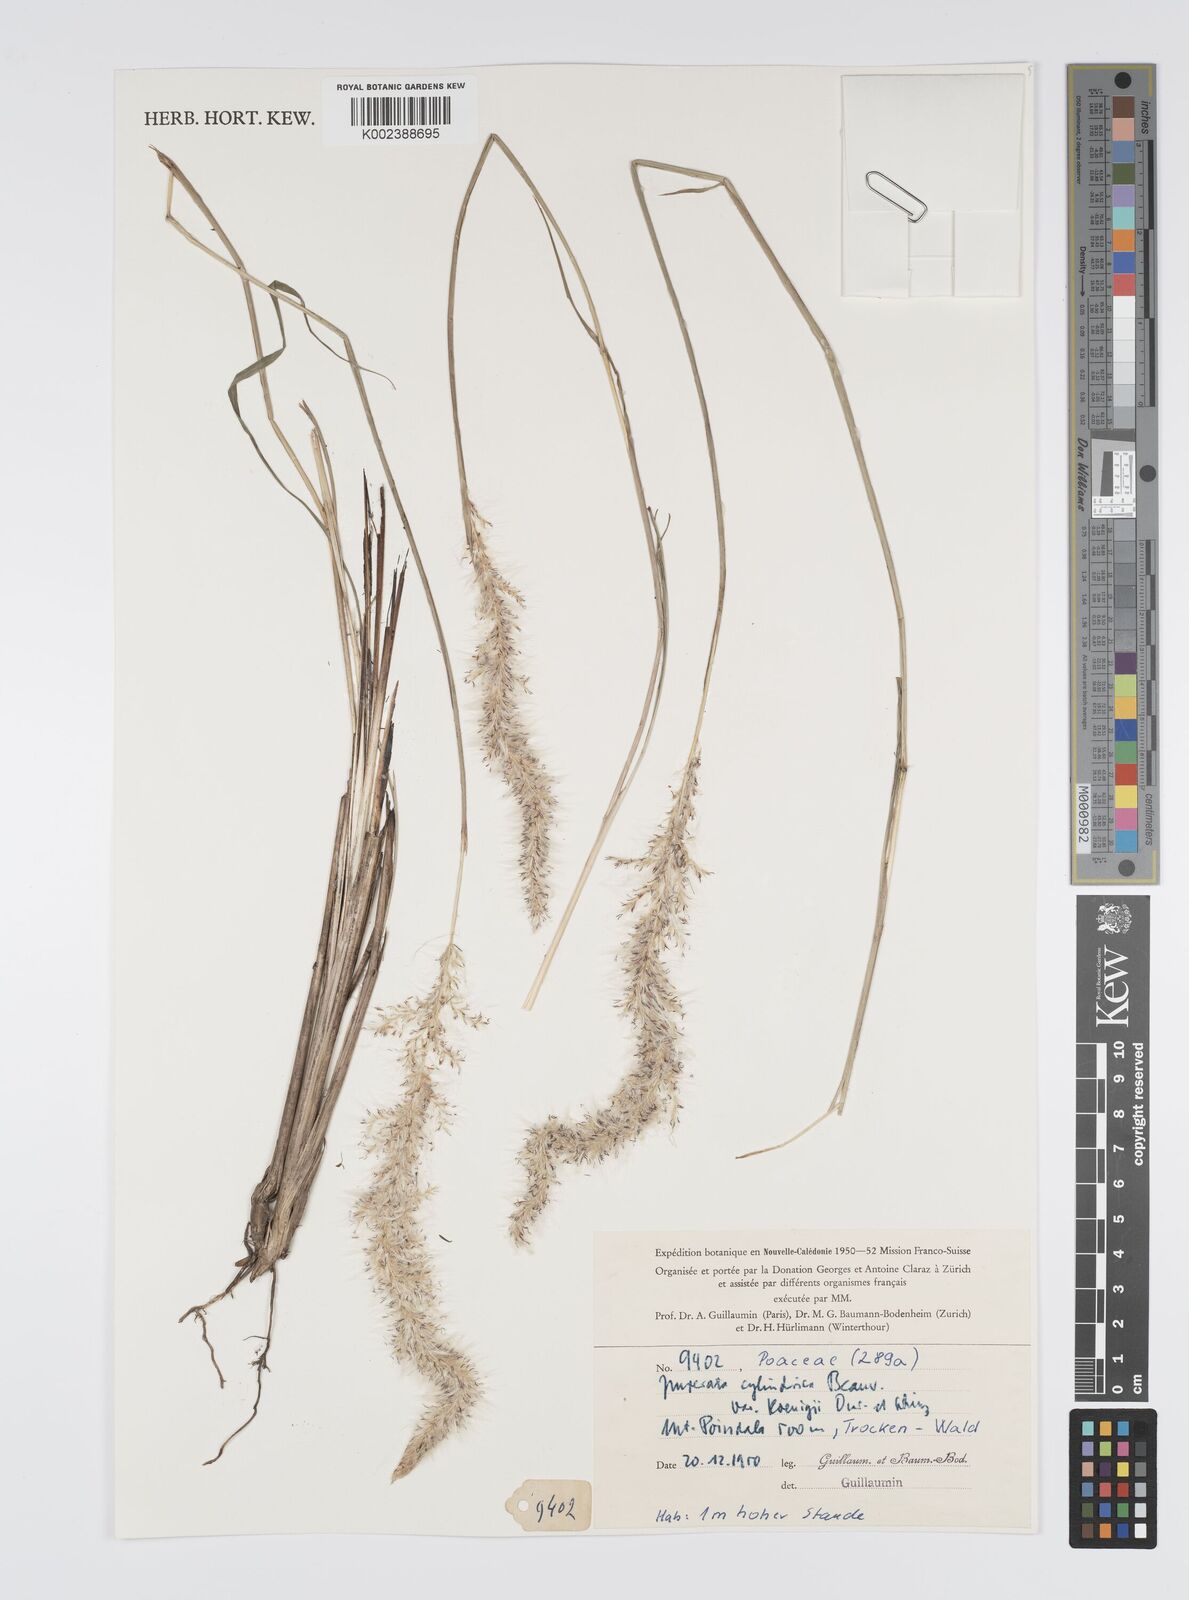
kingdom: Plantae
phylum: Tracheophyta
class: Liliopsida
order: Poales
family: Poaceae
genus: Imperata
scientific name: Imperata cylindrica
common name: Cogongrass
